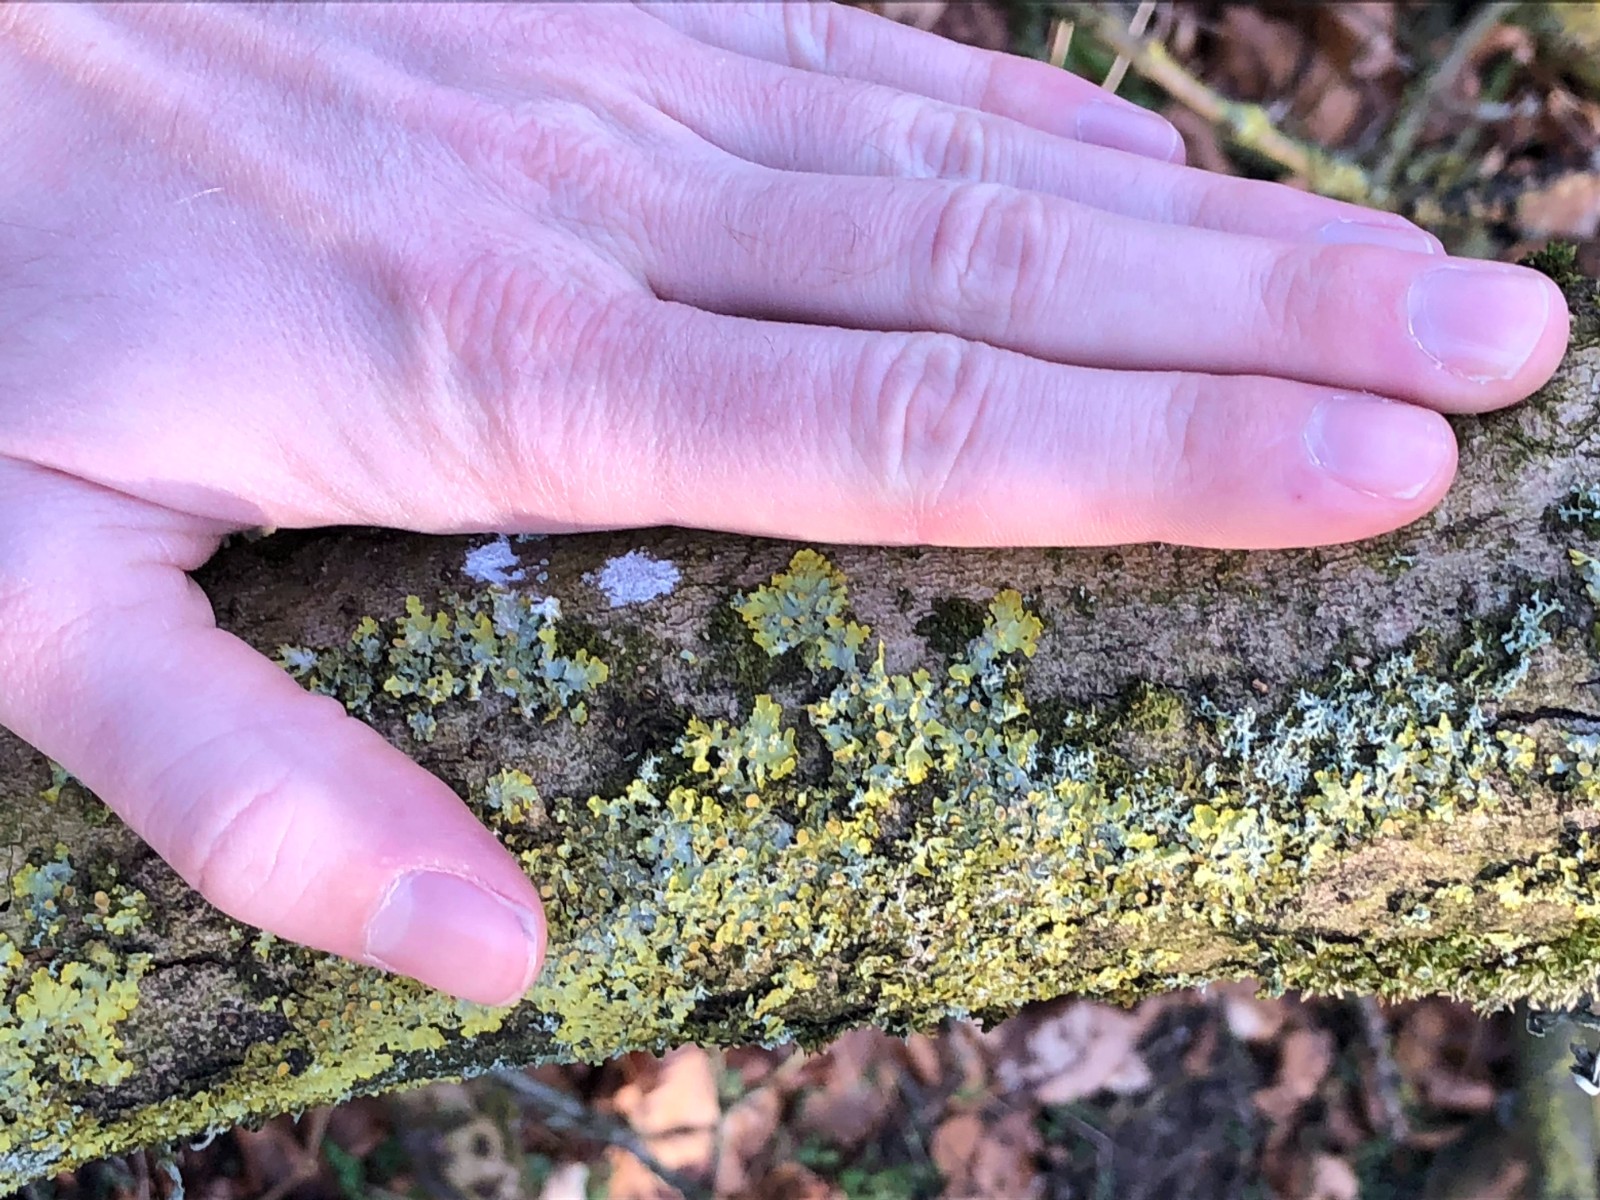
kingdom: Fungi
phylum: Ascomycota
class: Lecanoromycetes
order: Teloschistales
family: Teloschistaceae
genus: Xanthoria
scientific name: Xanthoria parietina
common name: almindelig væggelav
